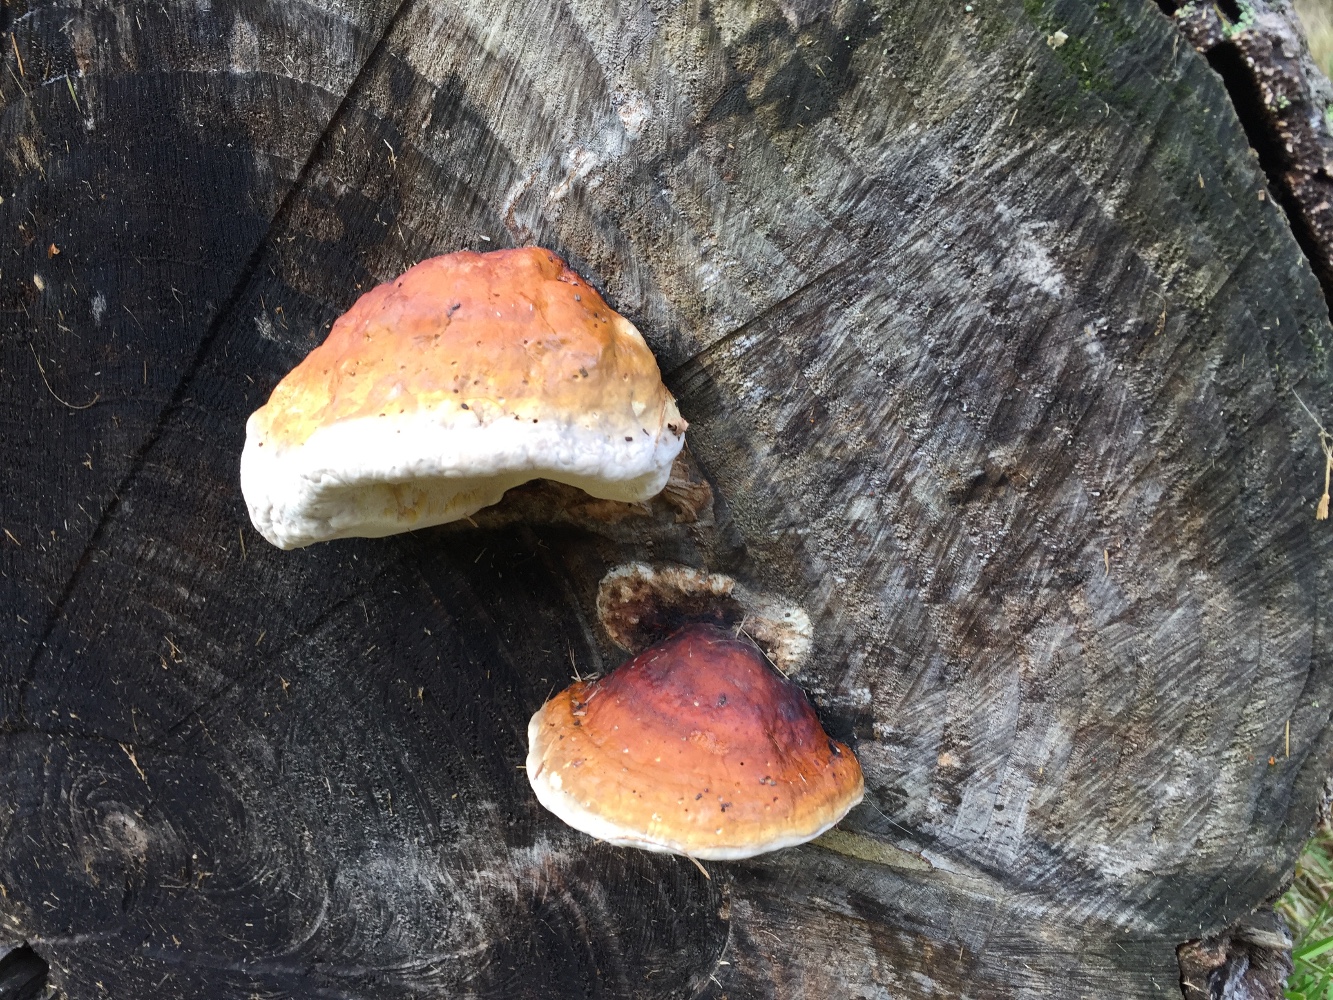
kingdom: Fungi
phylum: Basidiomycota
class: Agaricomycetes
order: Polyporales
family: Fomitopsidaceae
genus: Fomitopsis
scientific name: Fomitopsis pinicola
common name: randbæltet hovporesvamp
